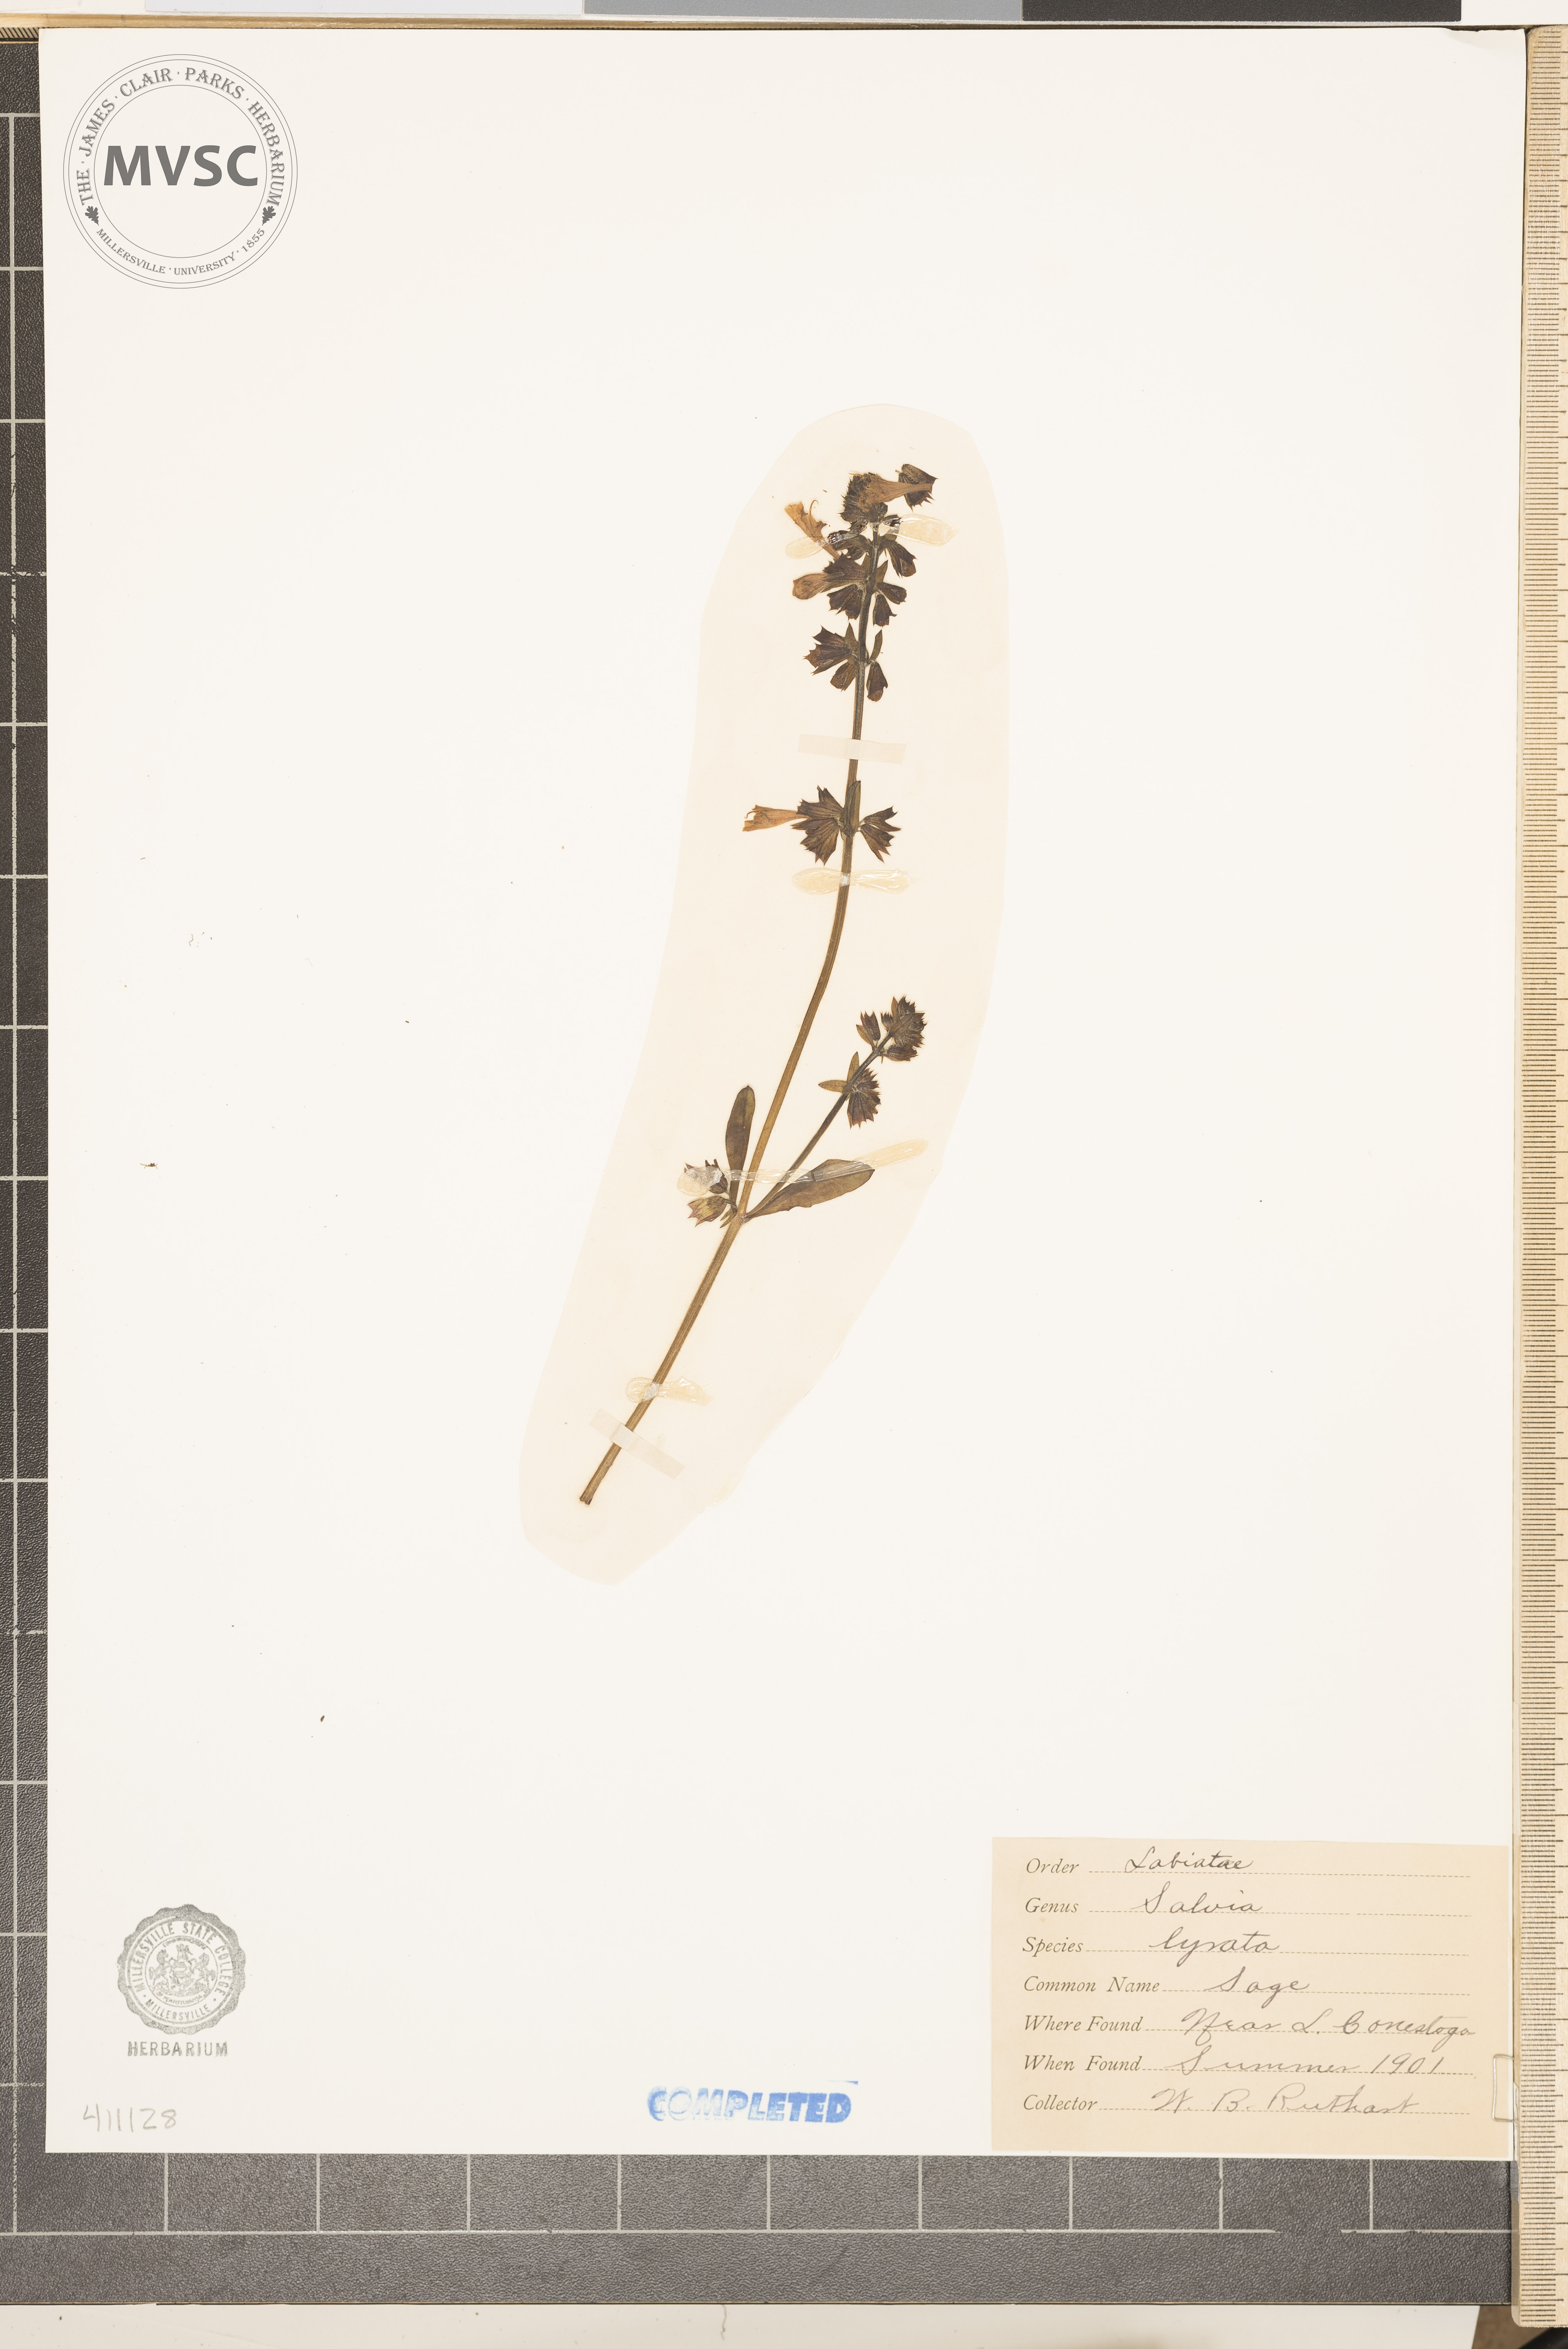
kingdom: Plantae
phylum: Tracheophyta
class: Magnoliopsida
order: Lamiales
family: Lamiaceae
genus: Salvia
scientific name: Salvia lyrata
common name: Cancerweed
